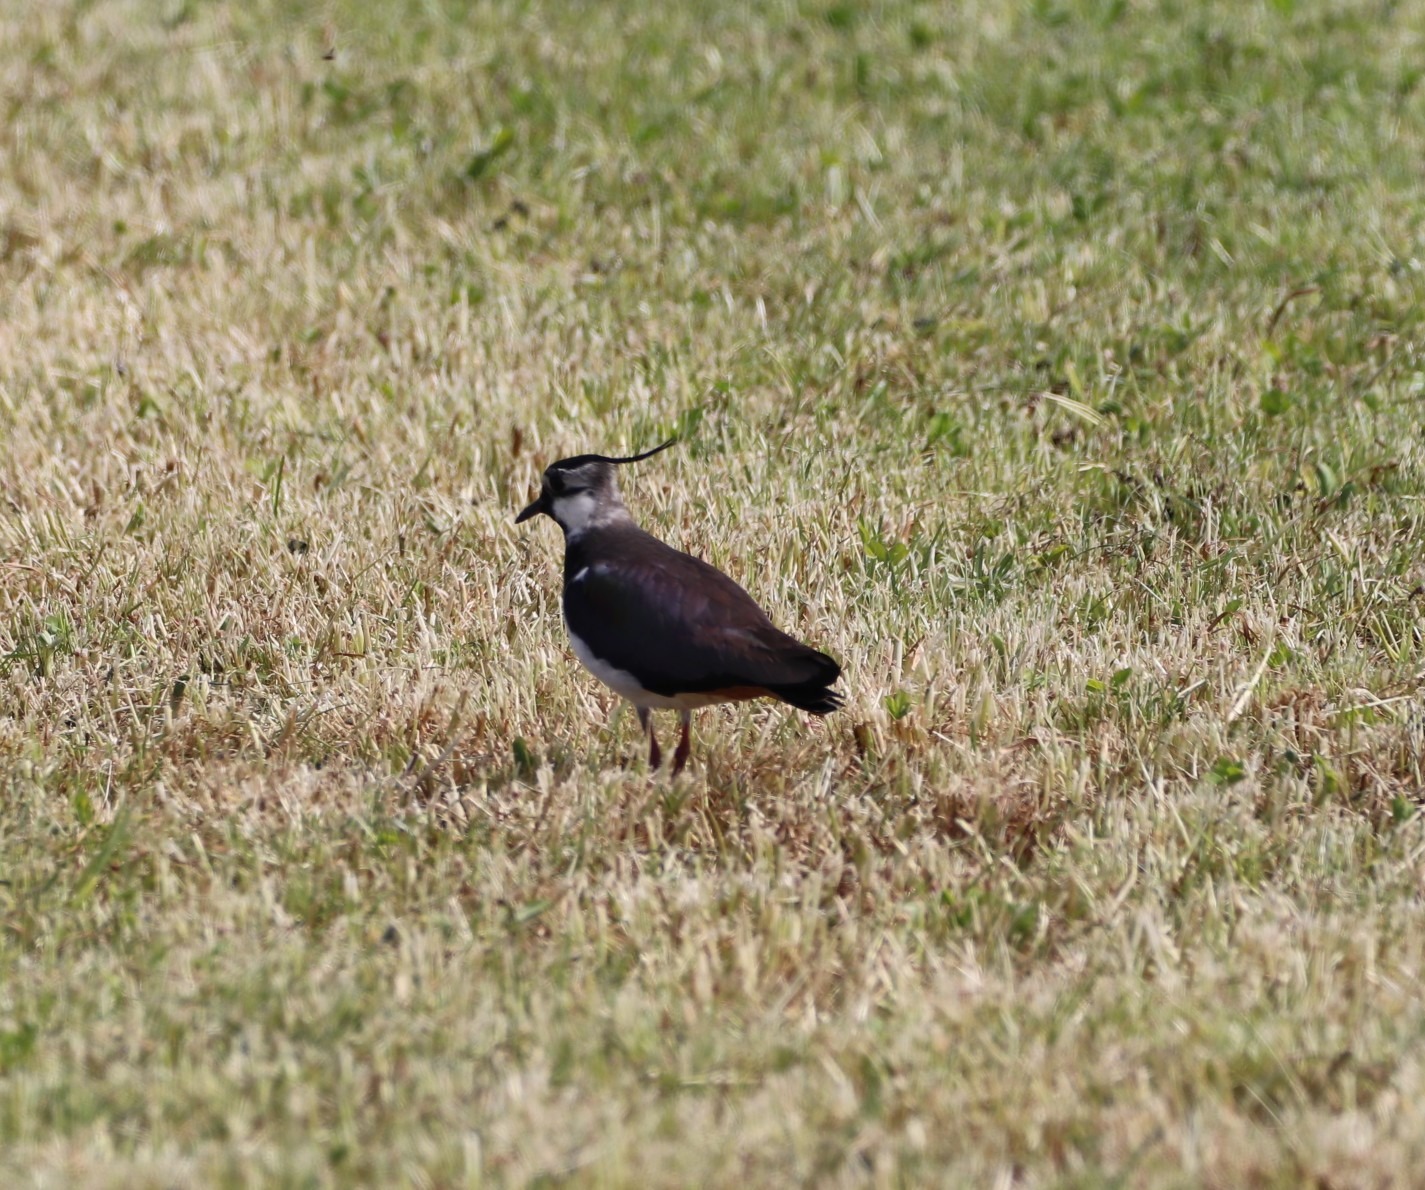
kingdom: Animalia
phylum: Chordata
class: Aves
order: Charadriiformes
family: Charadriidae
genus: Vanellus
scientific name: Vanellus vanellus
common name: Vibe
